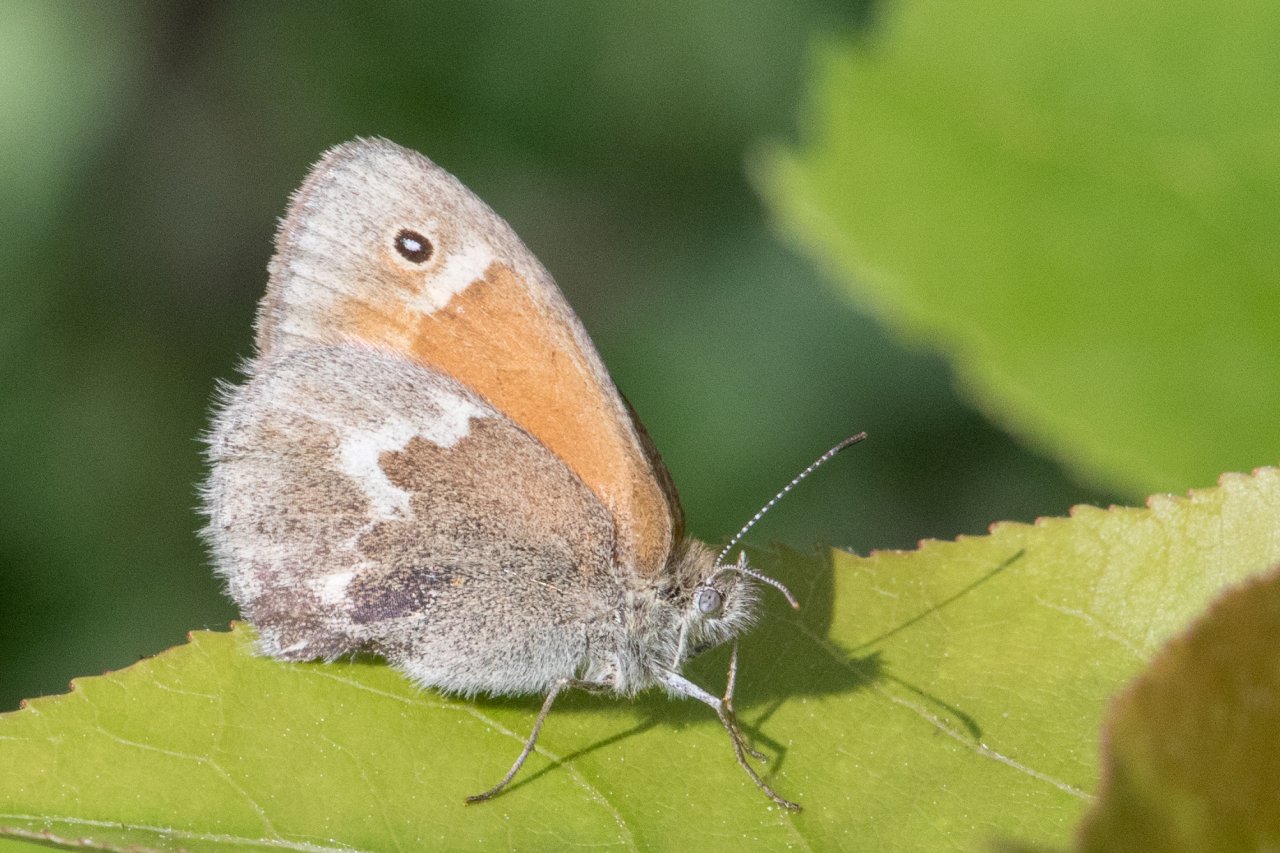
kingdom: Animalia
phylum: Arthropoda
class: Insecta
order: Lepidoptera
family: Nymphalidae
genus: Coenonympha
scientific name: Coenonympha tullia
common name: Large Heath
